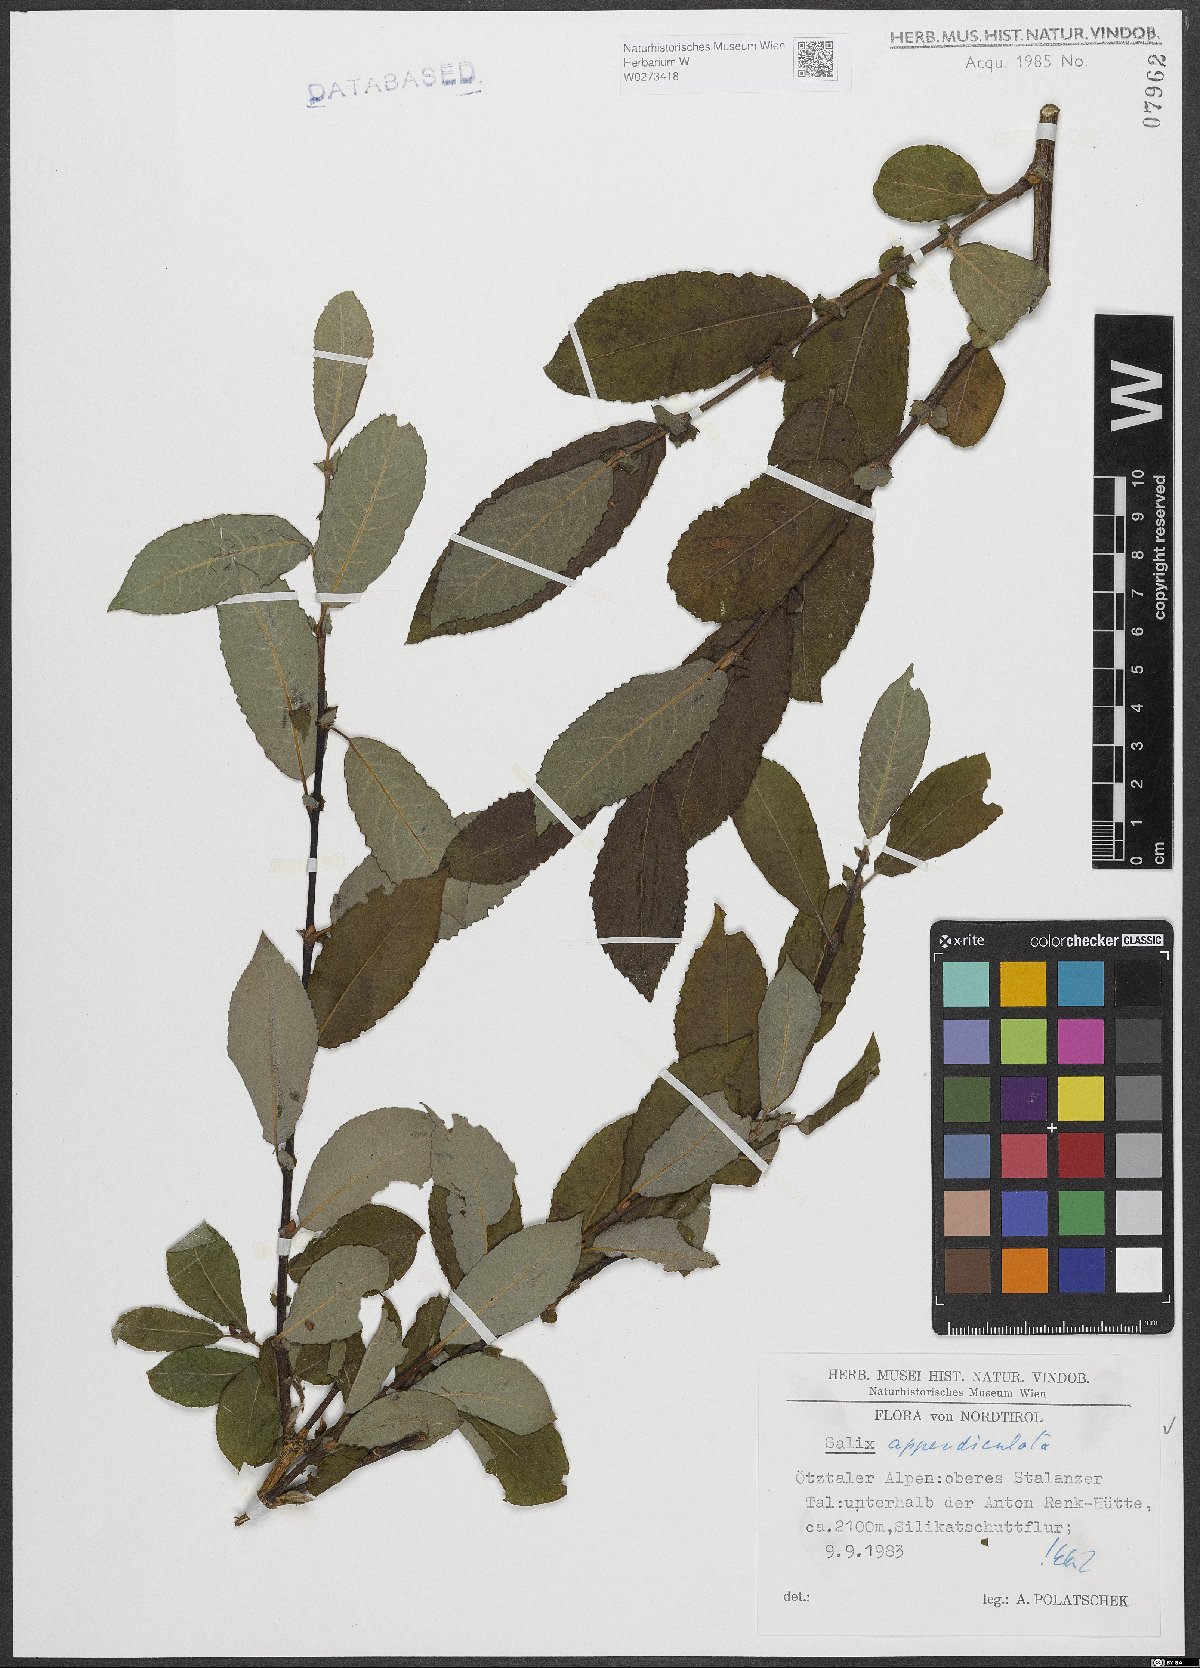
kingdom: Plantae
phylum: Tracheophyta
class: Magnoliopsida
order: Malpighiales
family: Salicaceae
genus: Salix
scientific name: Salix appendiculata
